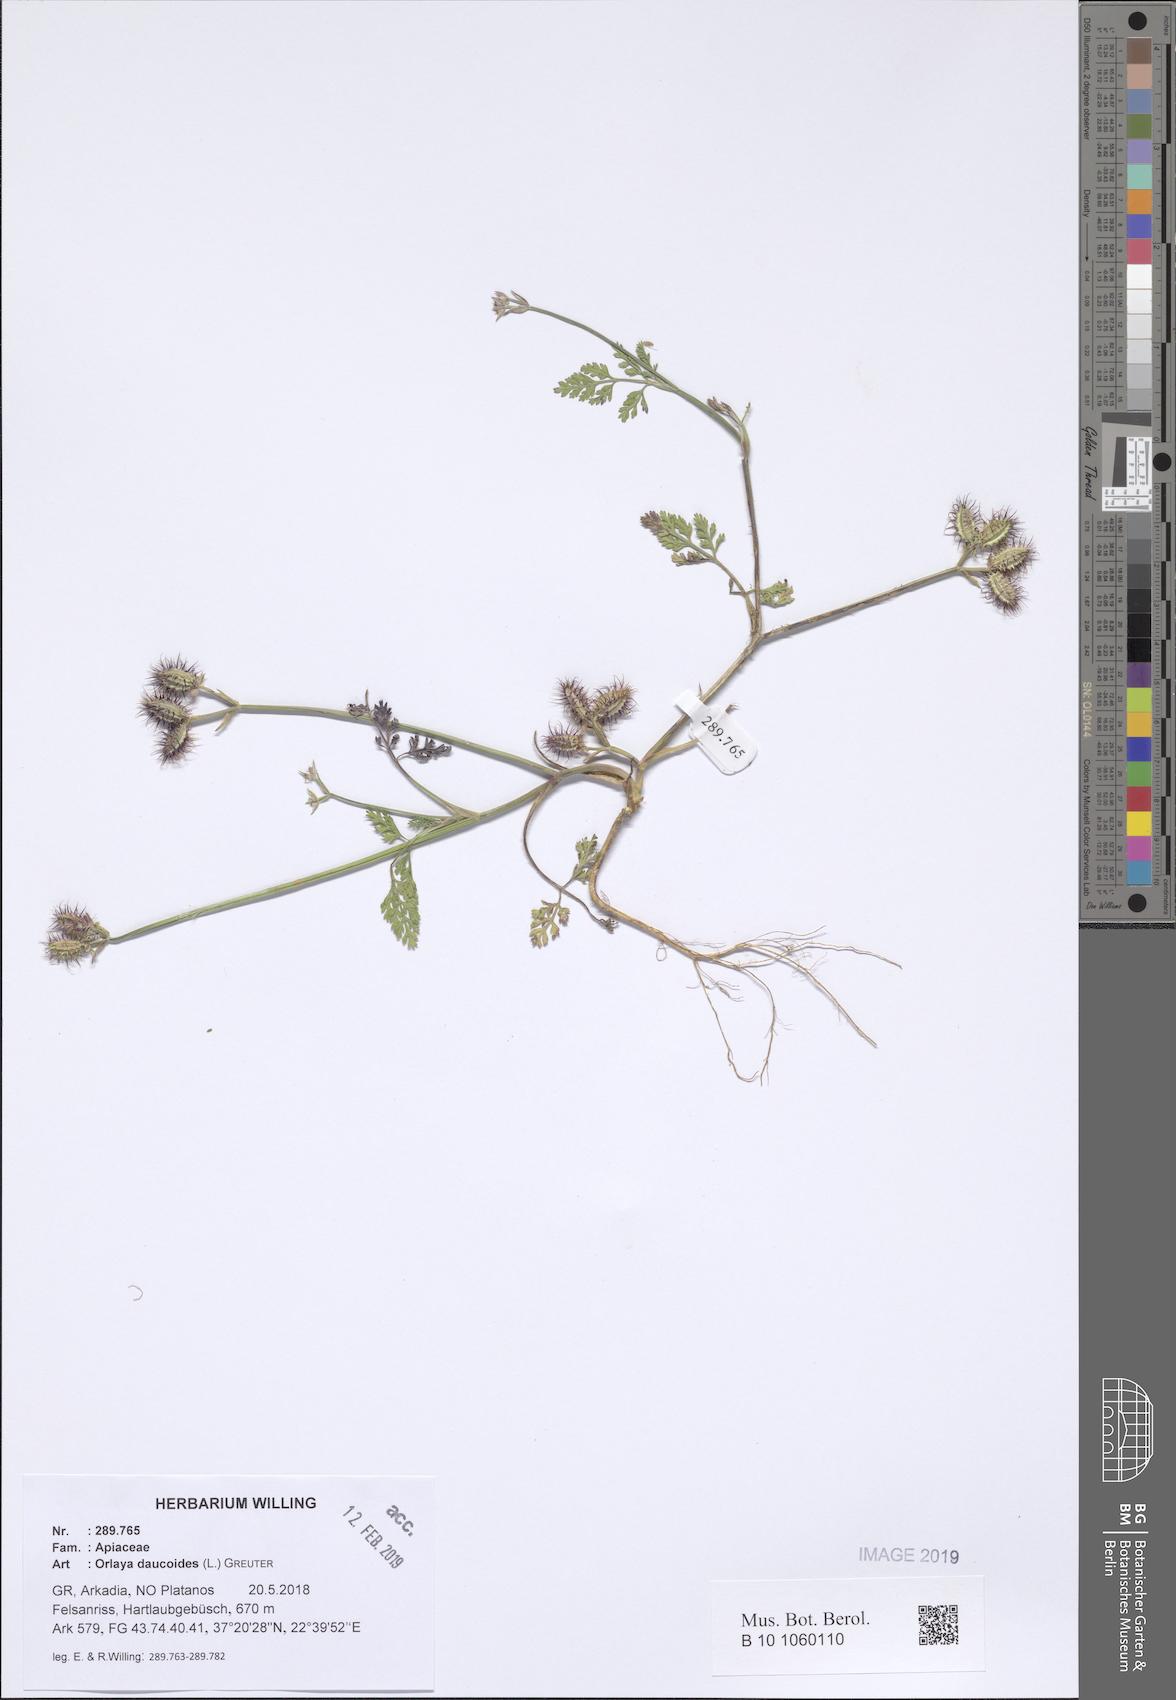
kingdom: Plantae
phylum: Tracheophyta
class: Magnoliopsida
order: Apiales
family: Apiaceae
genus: Orlaya
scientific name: Orlaya daucoides
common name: Flat-fruit orlaya
